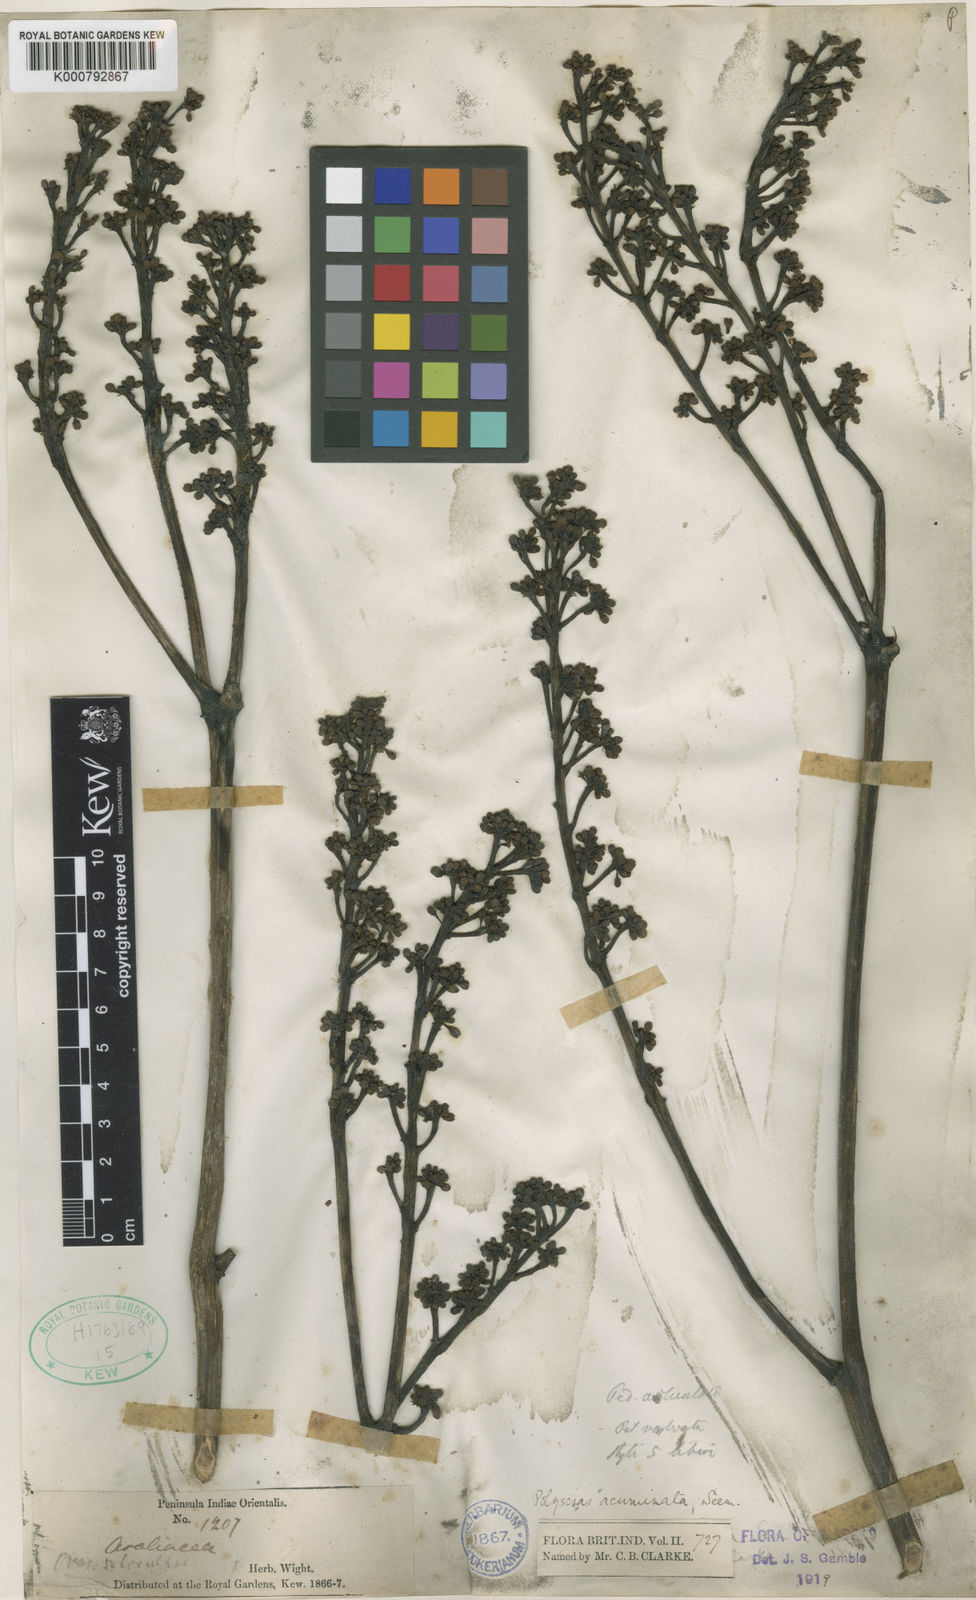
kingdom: Plantae
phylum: Tracheophyta
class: Magnoliopsida
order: Apiales
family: Araliaceae
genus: Polyscias
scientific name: Polyscias acuminata
